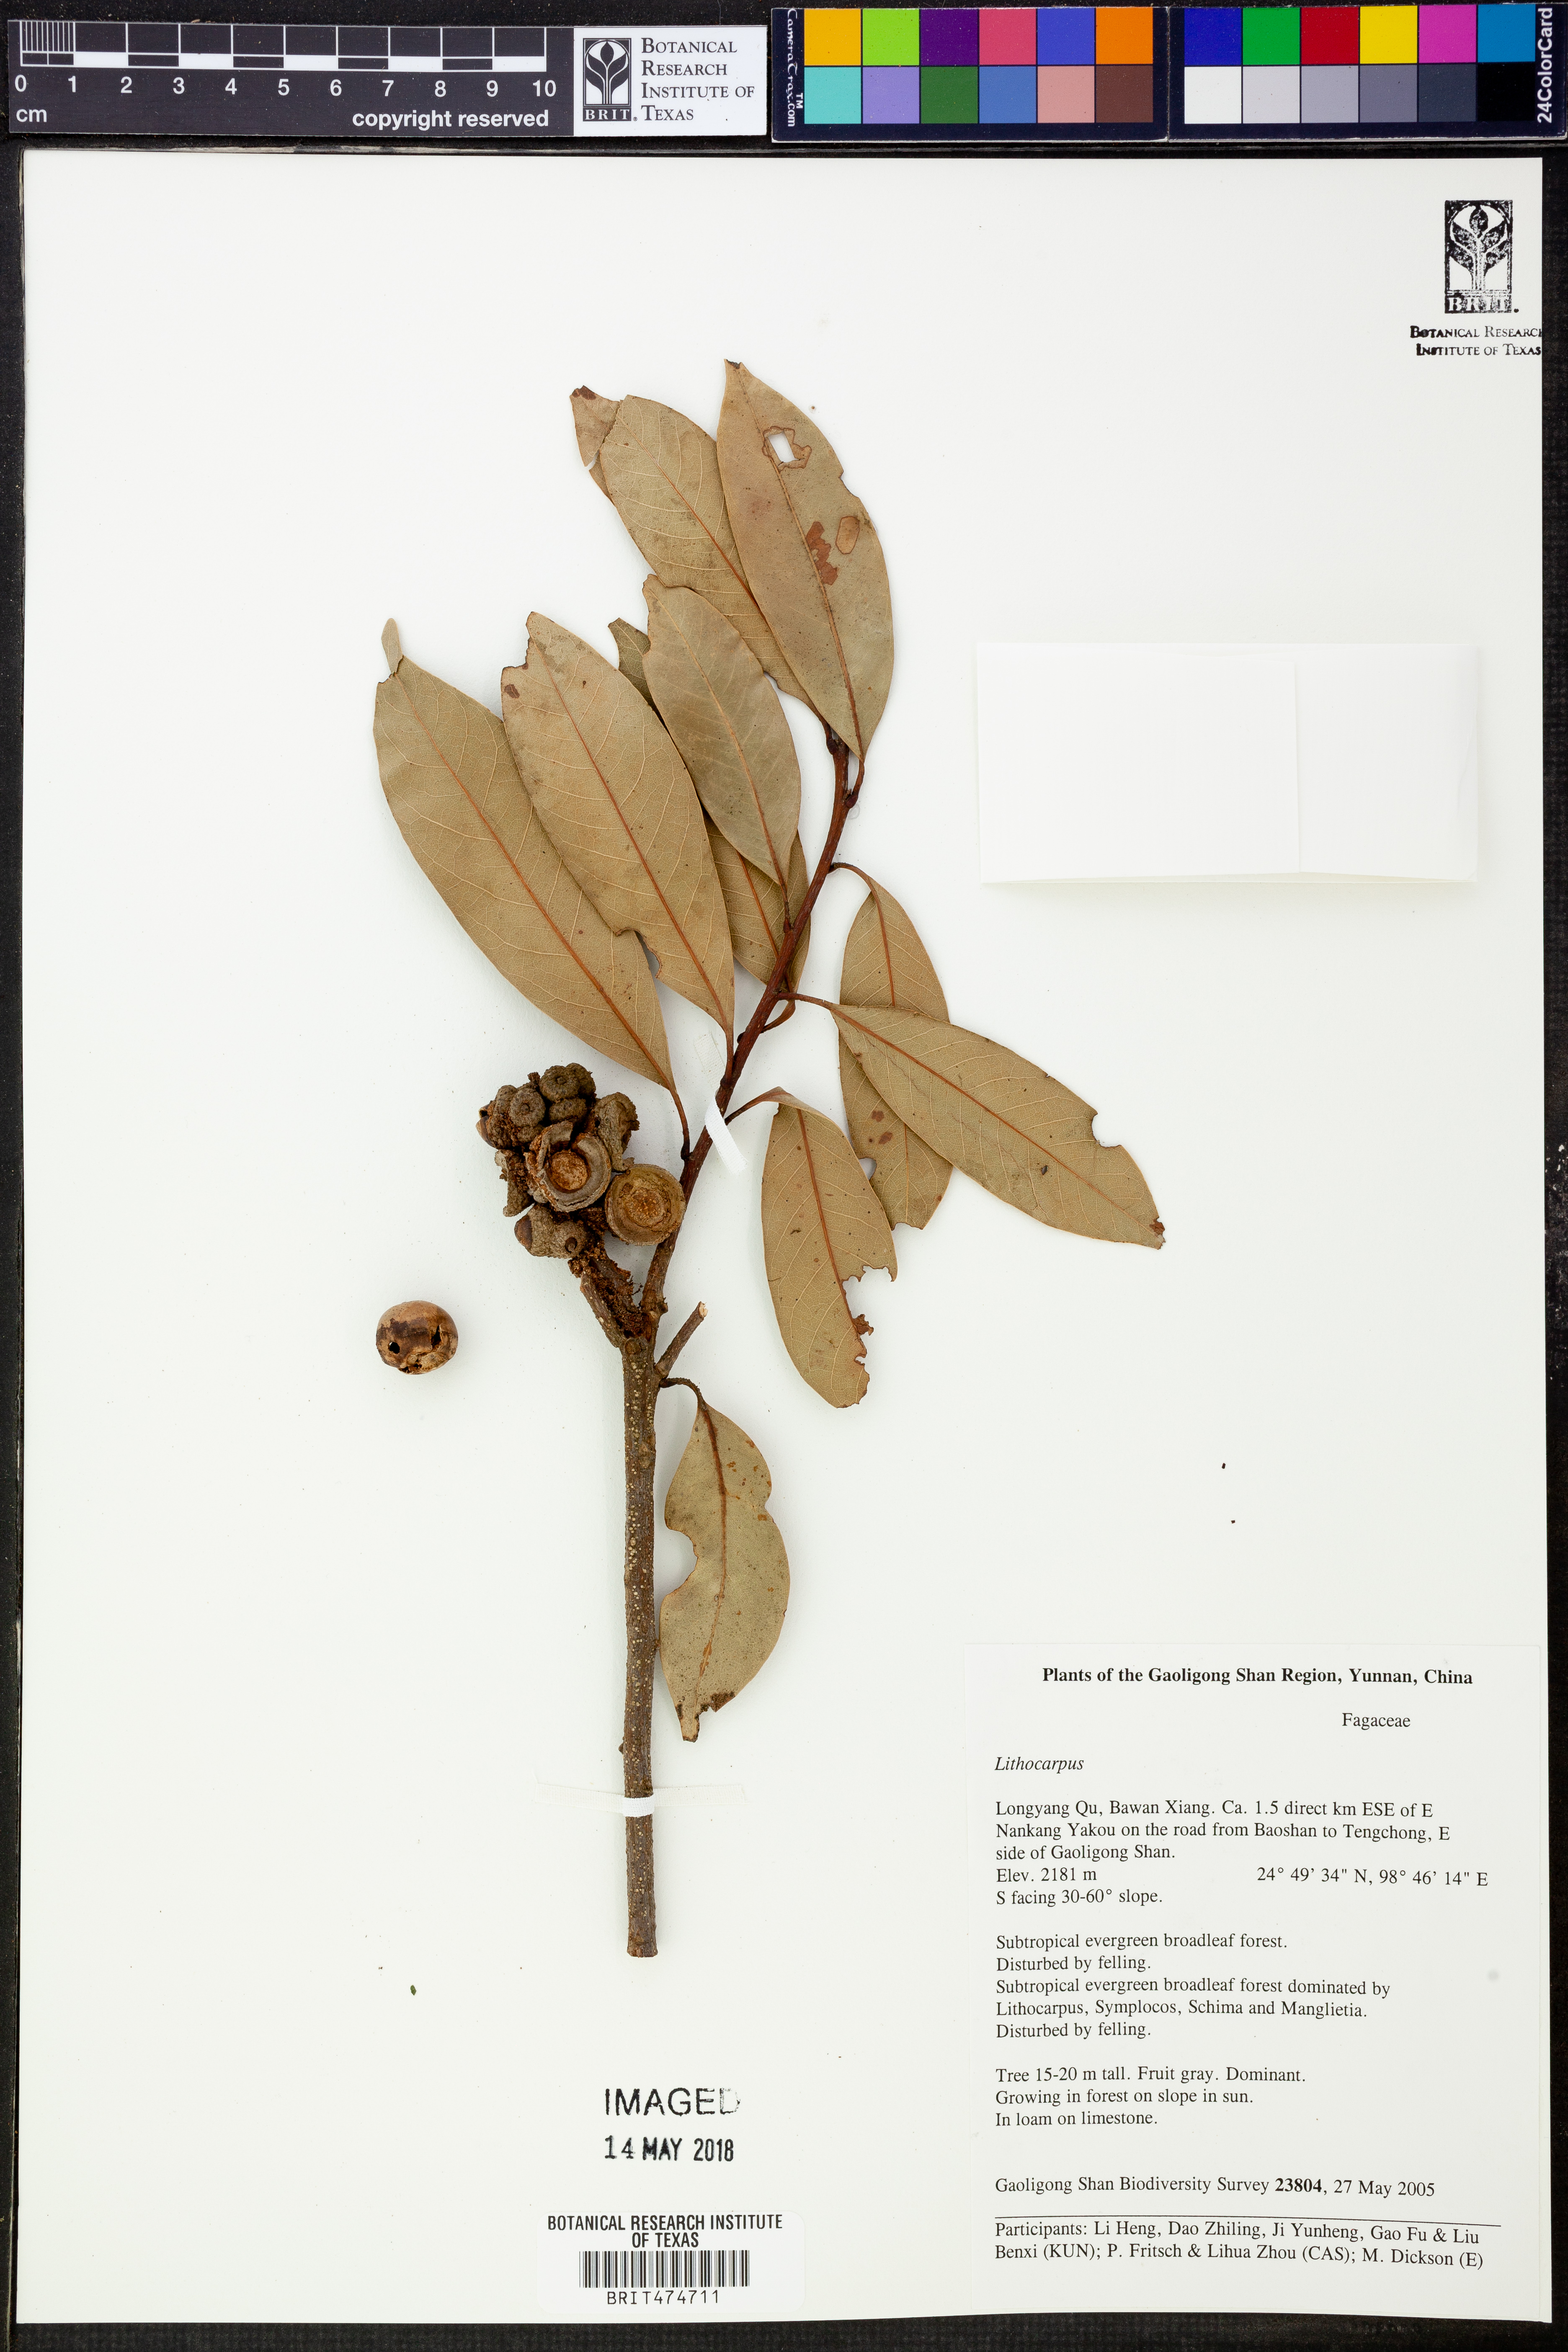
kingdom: Plantae
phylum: Tracheophyta
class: Magnoliopsida
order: Fagales
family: Fagaceae
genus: Lithocarpus
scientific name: Lithocarpus
